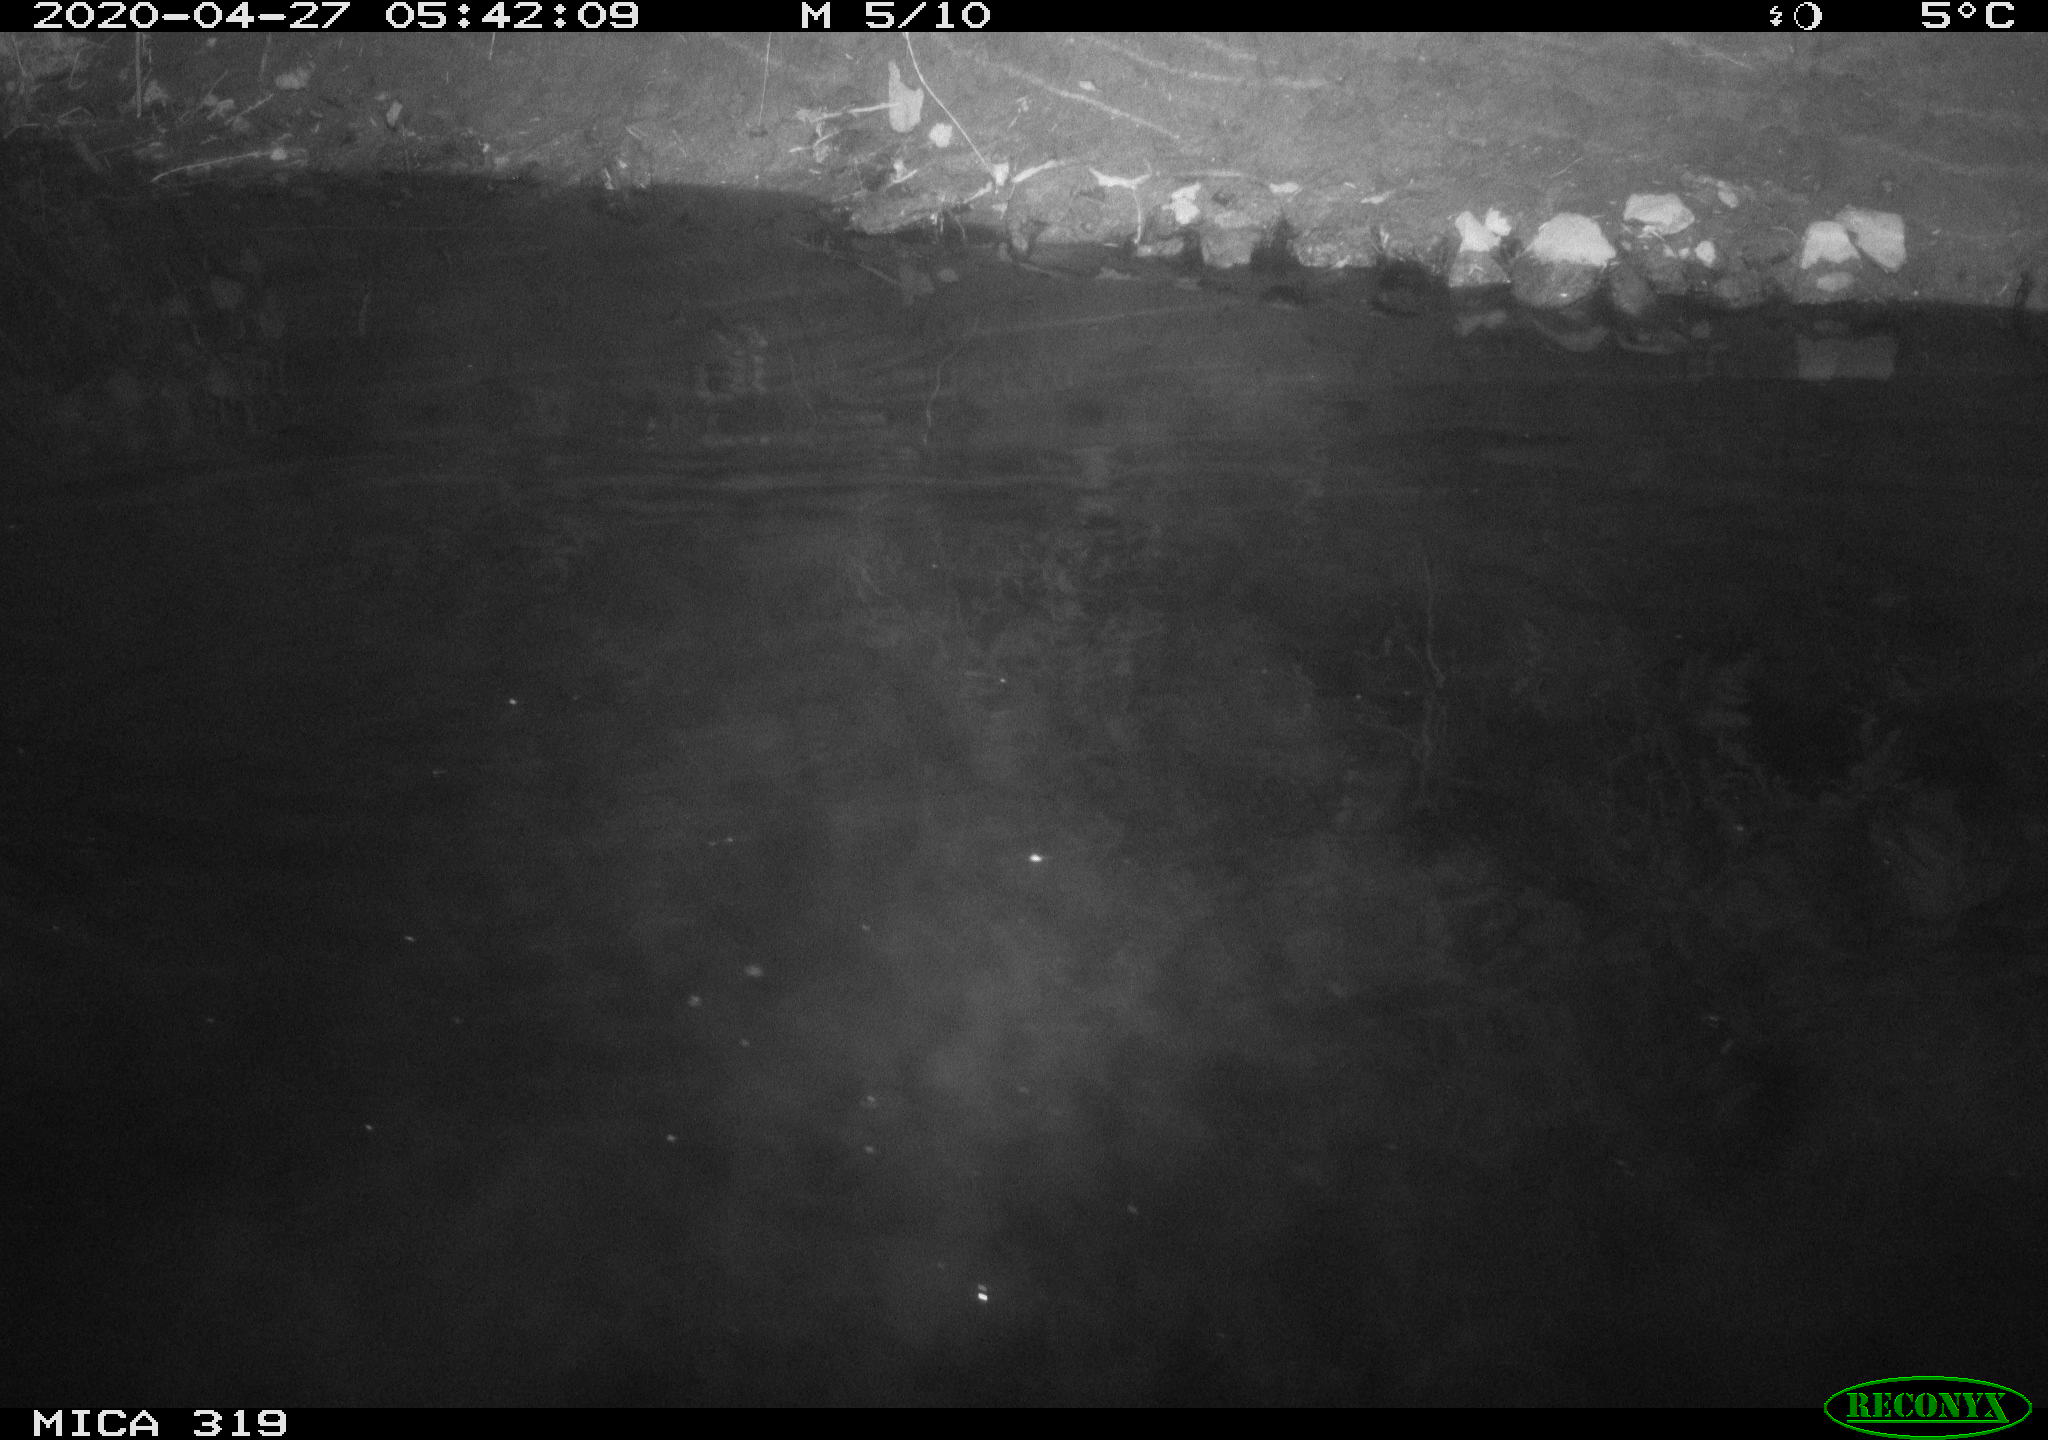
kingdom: Animalia
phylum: Chordata
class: Aves
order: Anseriformes
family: Anatidae
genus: Anas
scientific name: Anas platyrhynchos
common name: Mallard
